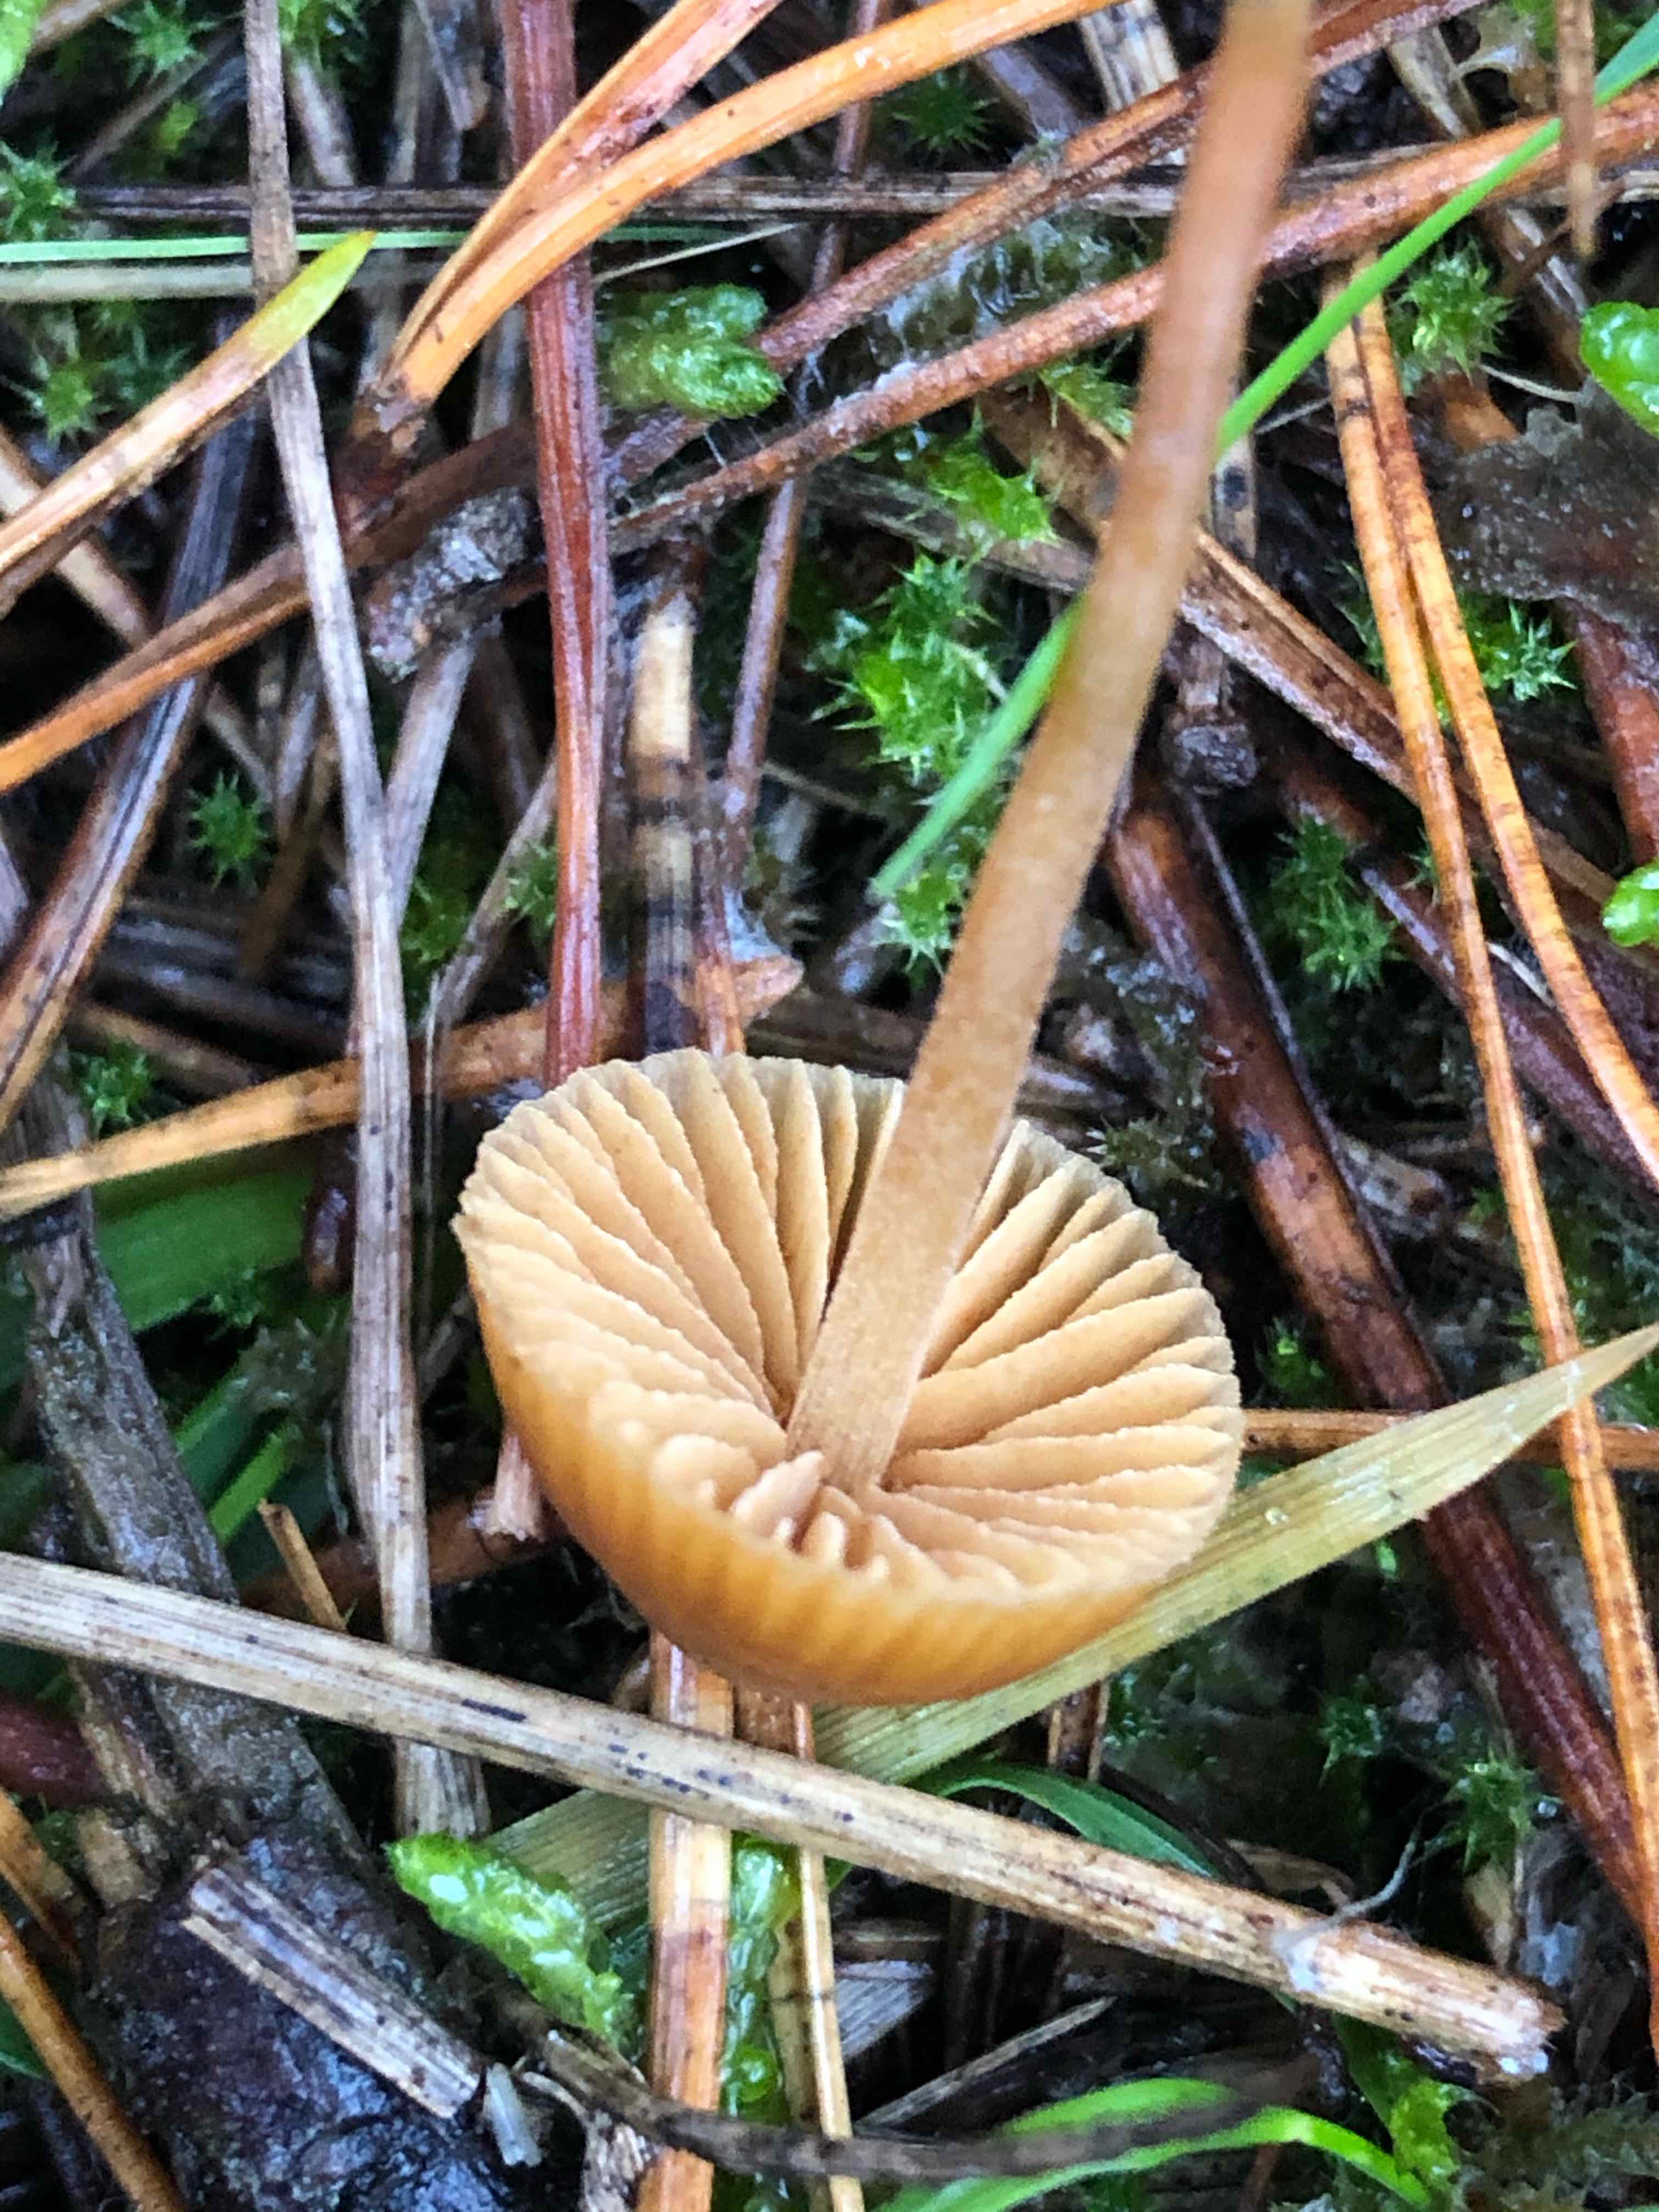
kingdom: Fungi
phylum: Basidiomycota
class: Agaricomycetes
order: Agaricales
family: Hymenogastraceae
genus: Galerina
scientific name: Galerina
